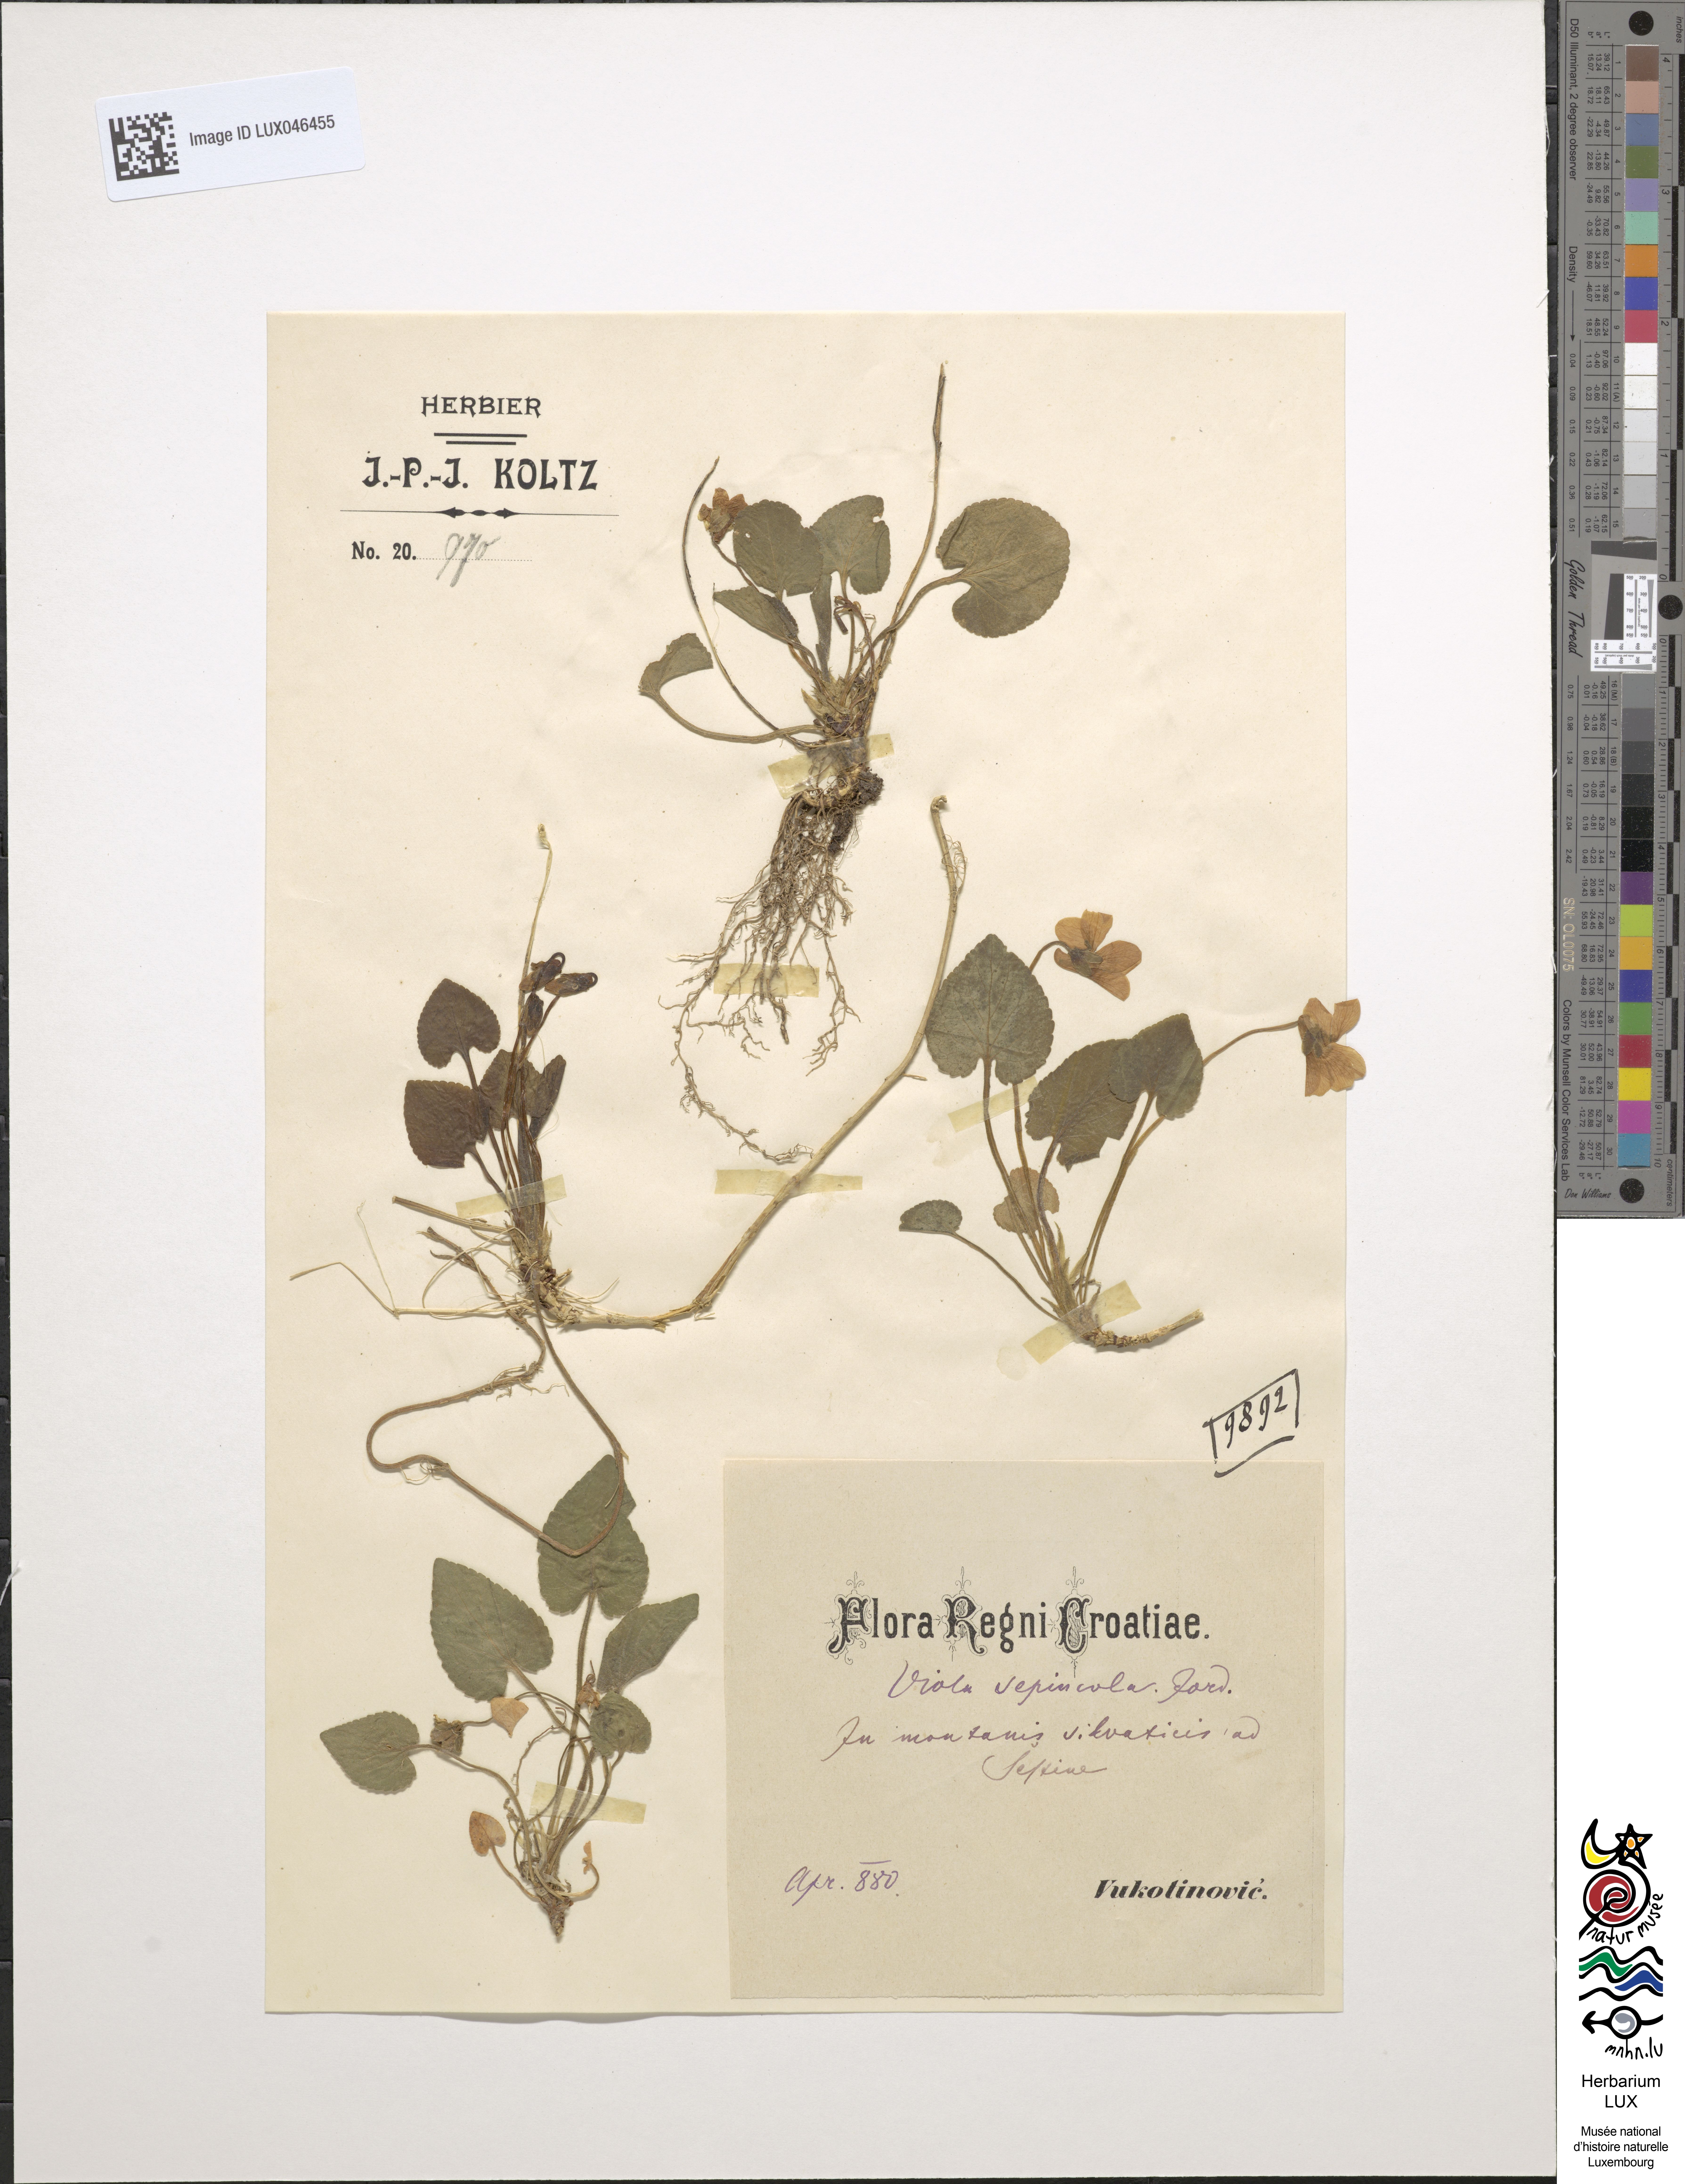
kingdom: Plantae
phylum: Tracheophyta
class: Magnoliopsida
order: Malpighiales
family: Violaceae
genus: Viola
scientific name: Viola suavis
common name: Russian violet
